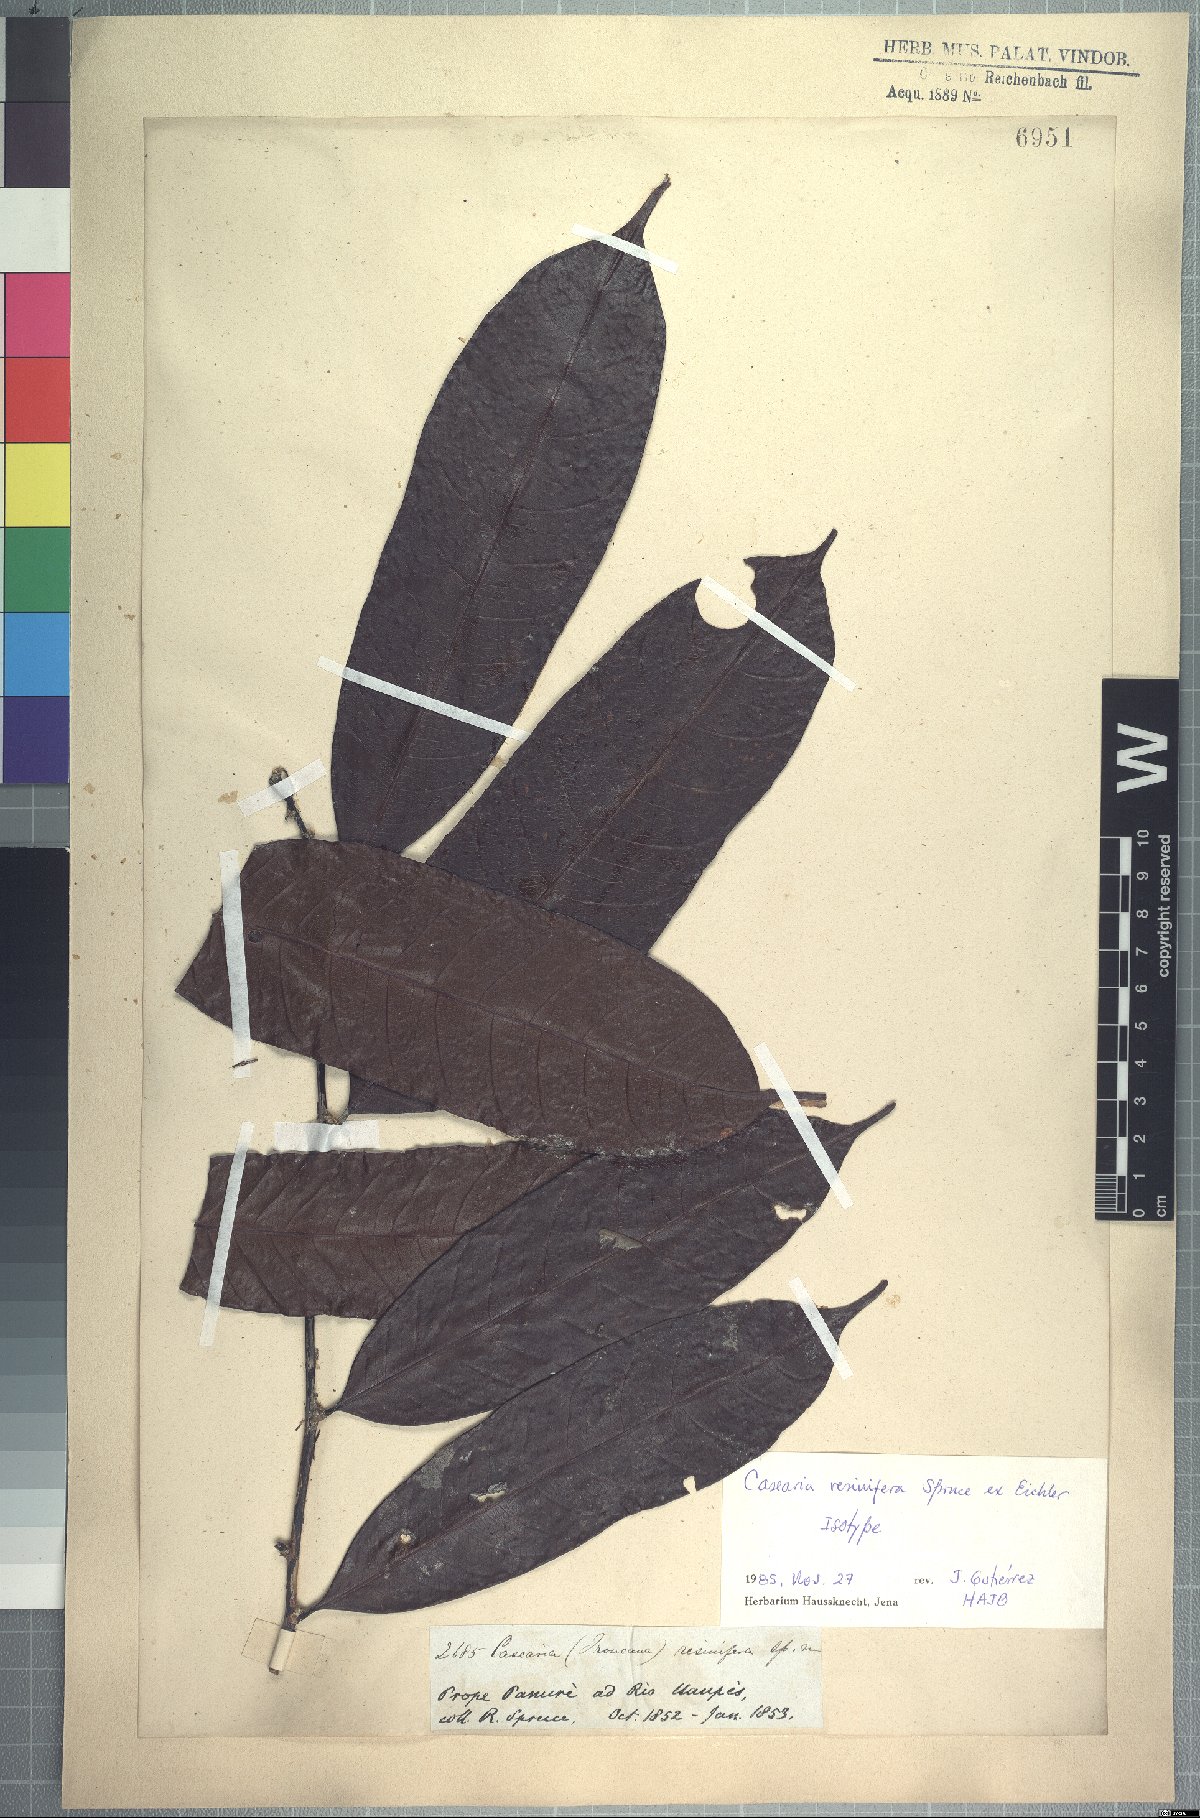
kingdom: Plantae
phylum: Tracheophyta
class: Magnoliopsida
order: Malpighiales
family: Salicaceae
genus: Casearia
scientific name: Casearia resinifera
